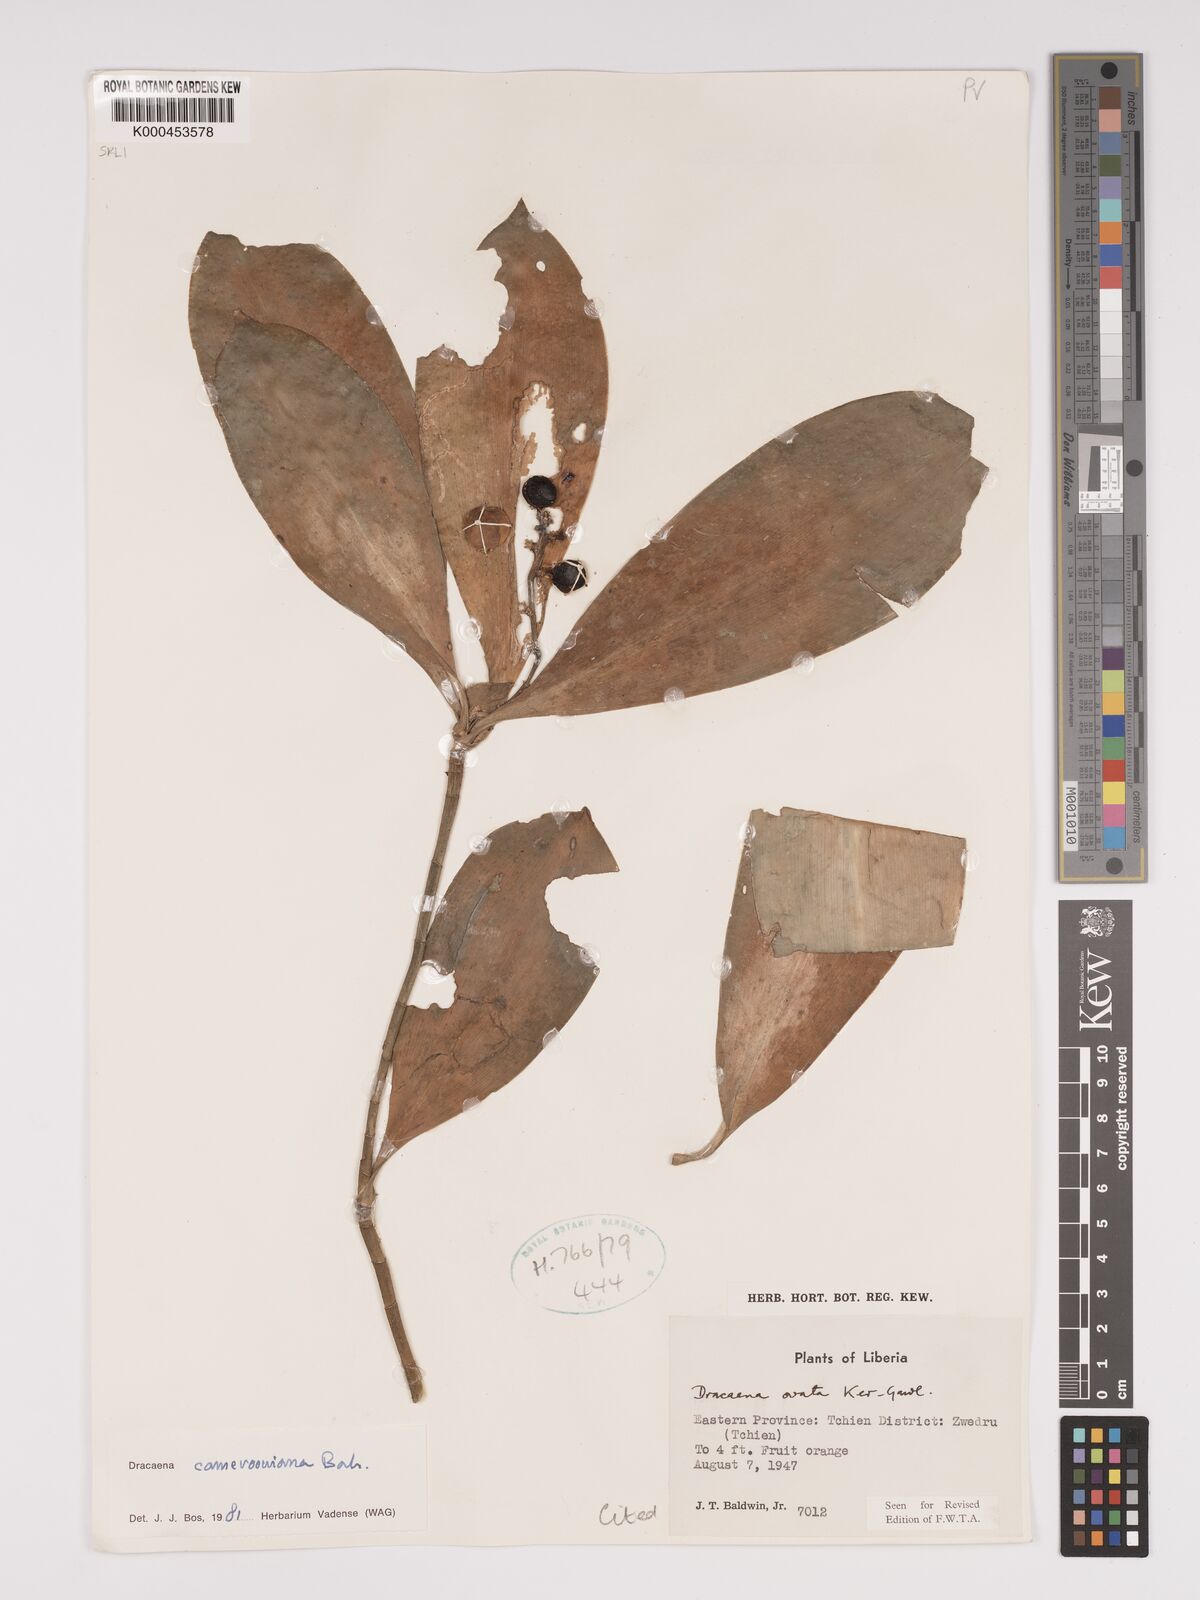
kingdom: Plantae
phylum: Tracheophyta
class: Liliopsida
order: Asparagales
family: Asparagaceae
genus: Dracaena
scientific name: Dracaena camerooniana
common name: Dragon tree
